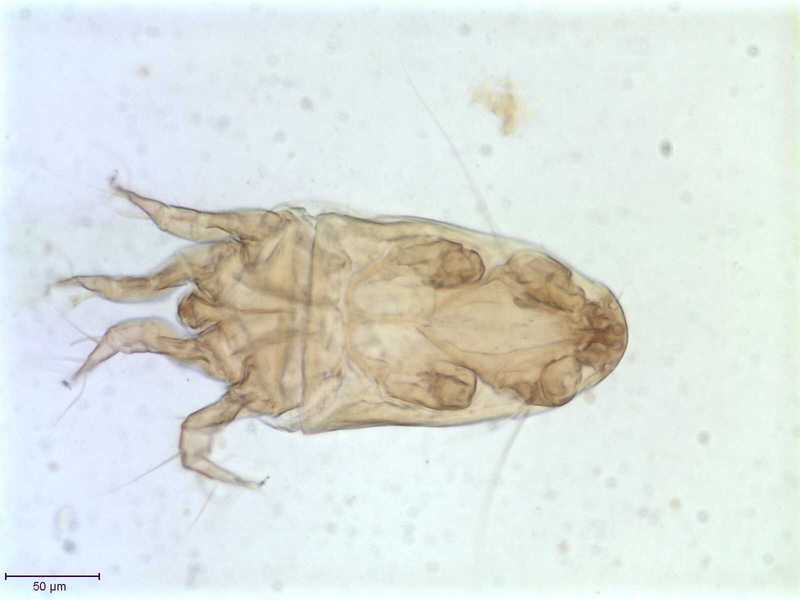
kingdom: Animalia
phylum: Arthropoda
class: Arachnida
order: Sarcoptiformes
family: Winterschmidtiidae
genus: Ensliniella
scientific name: Ensliniella parasitica
